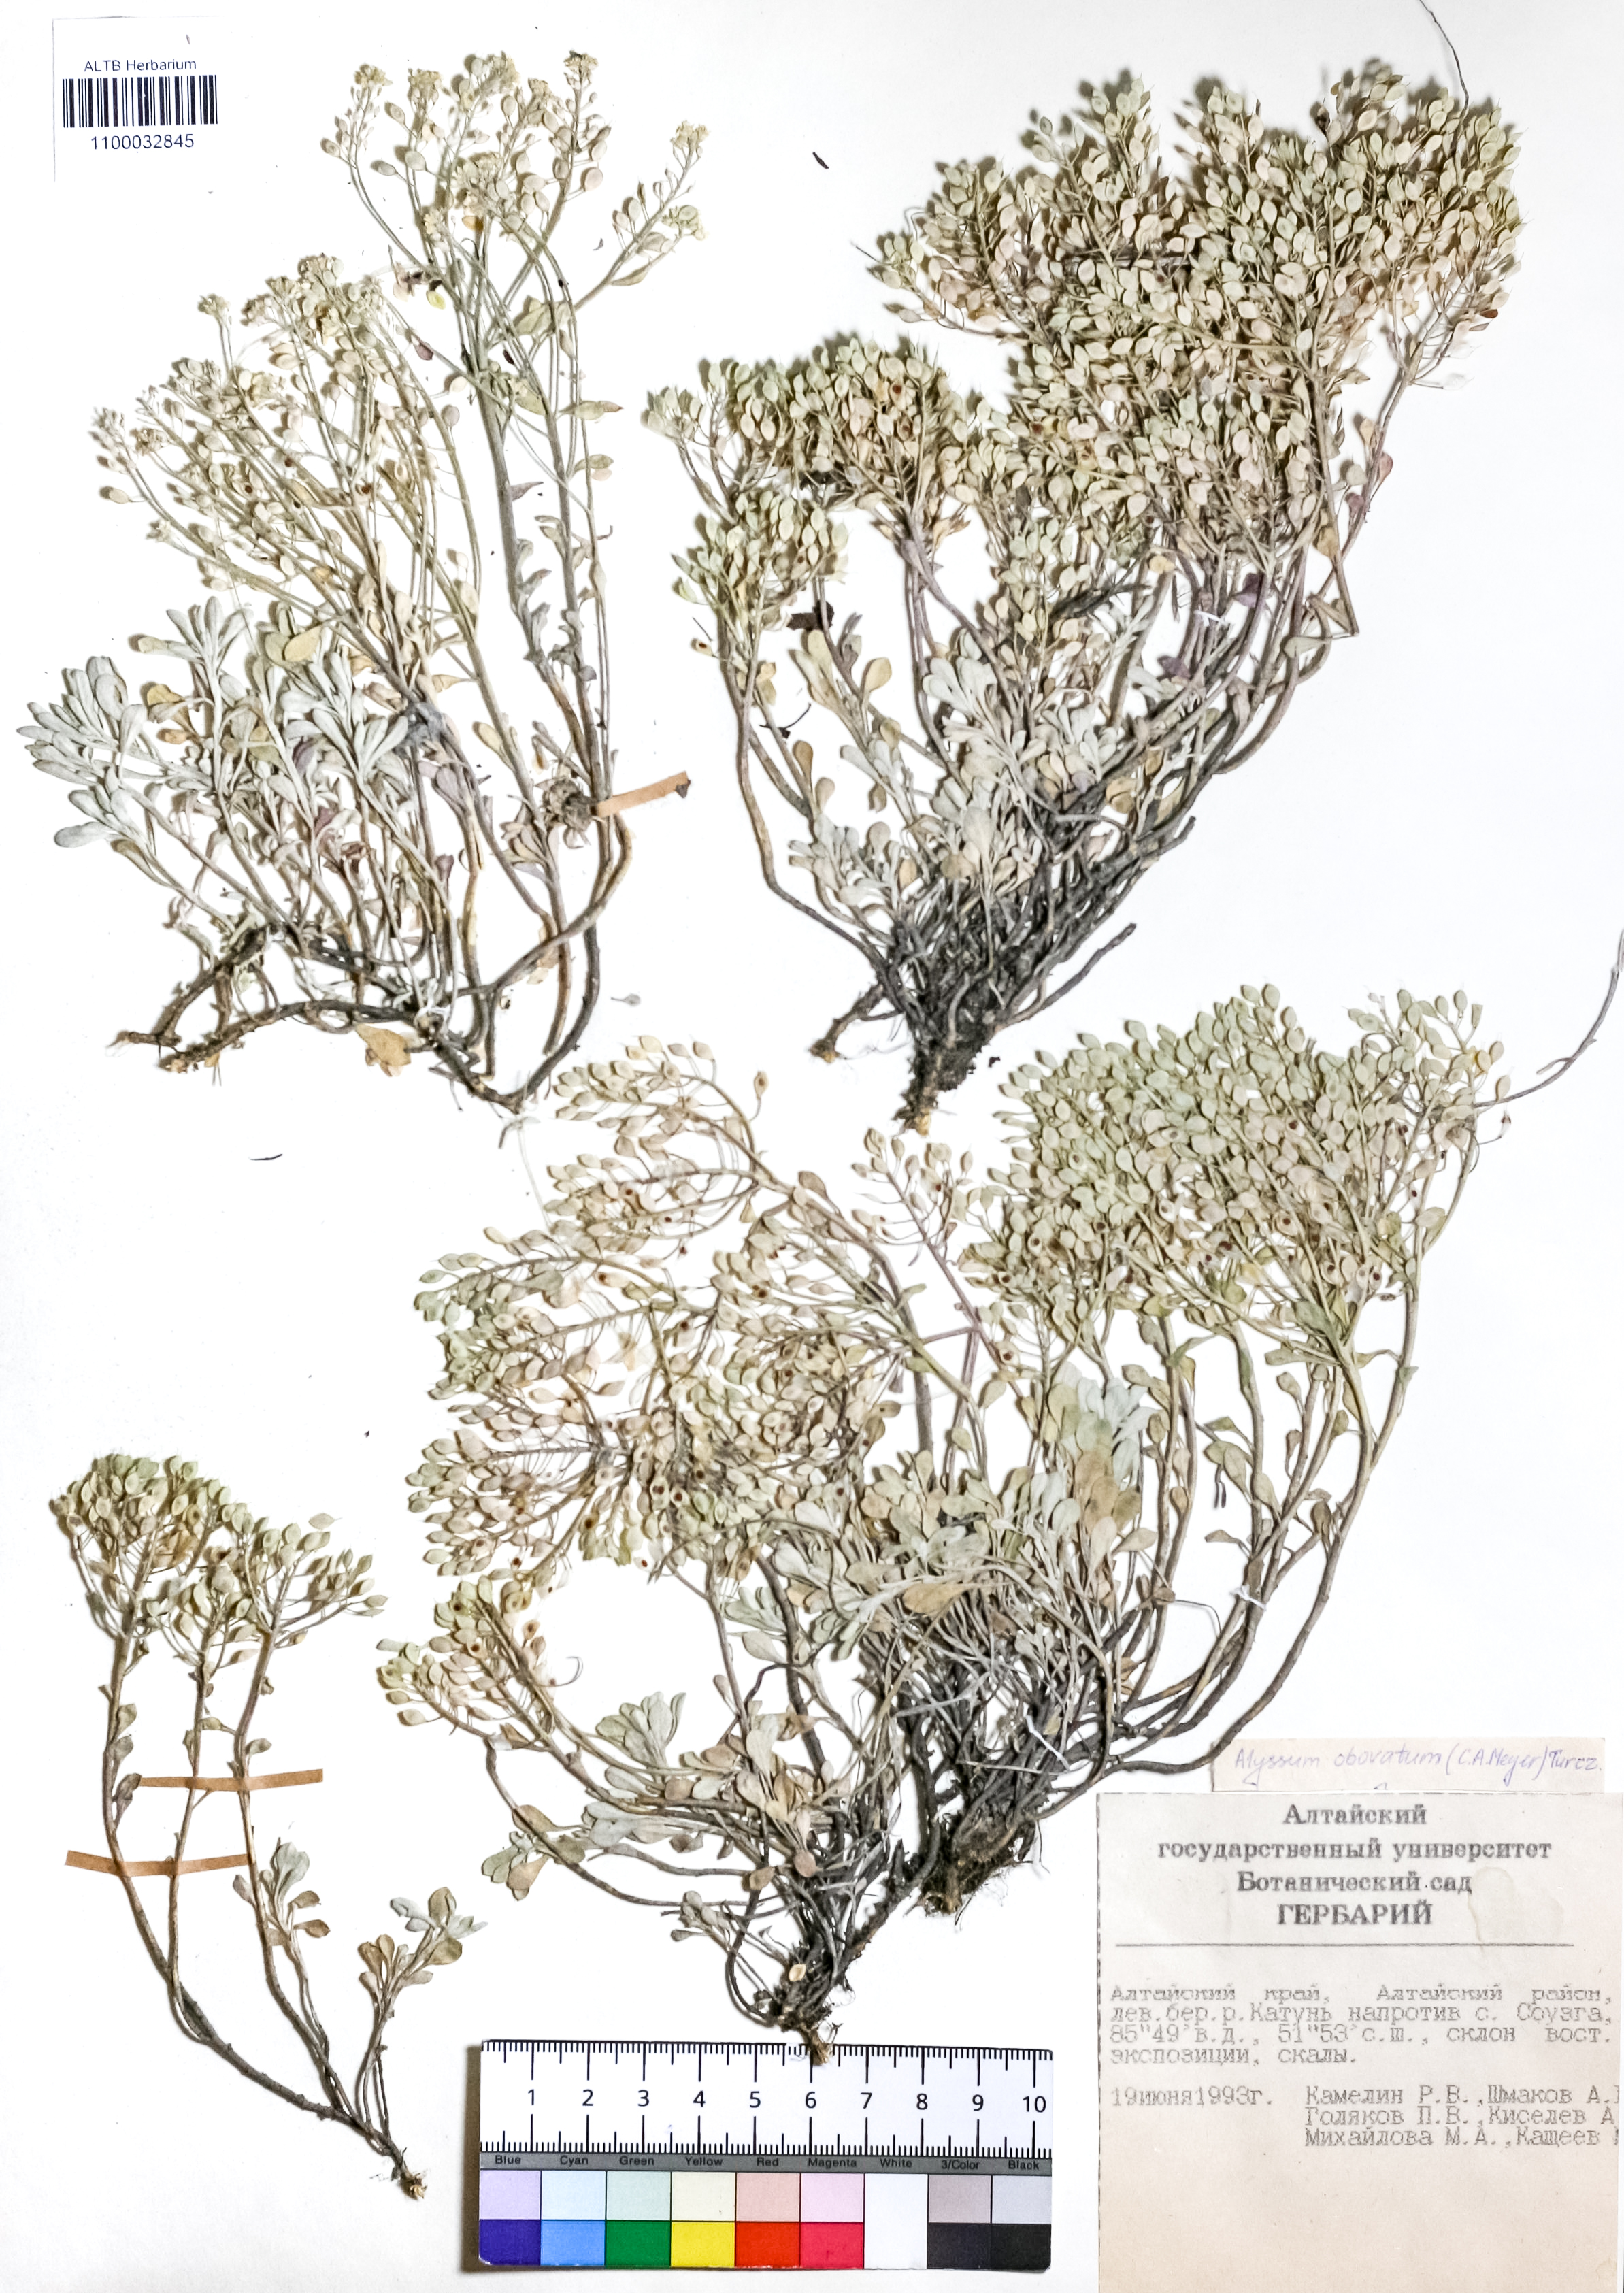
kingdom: Plantae
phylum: Tracheophyta
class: Magnoliopsida
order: Brassicales
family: Brassicaceae
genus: Odontarrhena
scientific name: Odontarrhena obovata
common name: American alyssum
